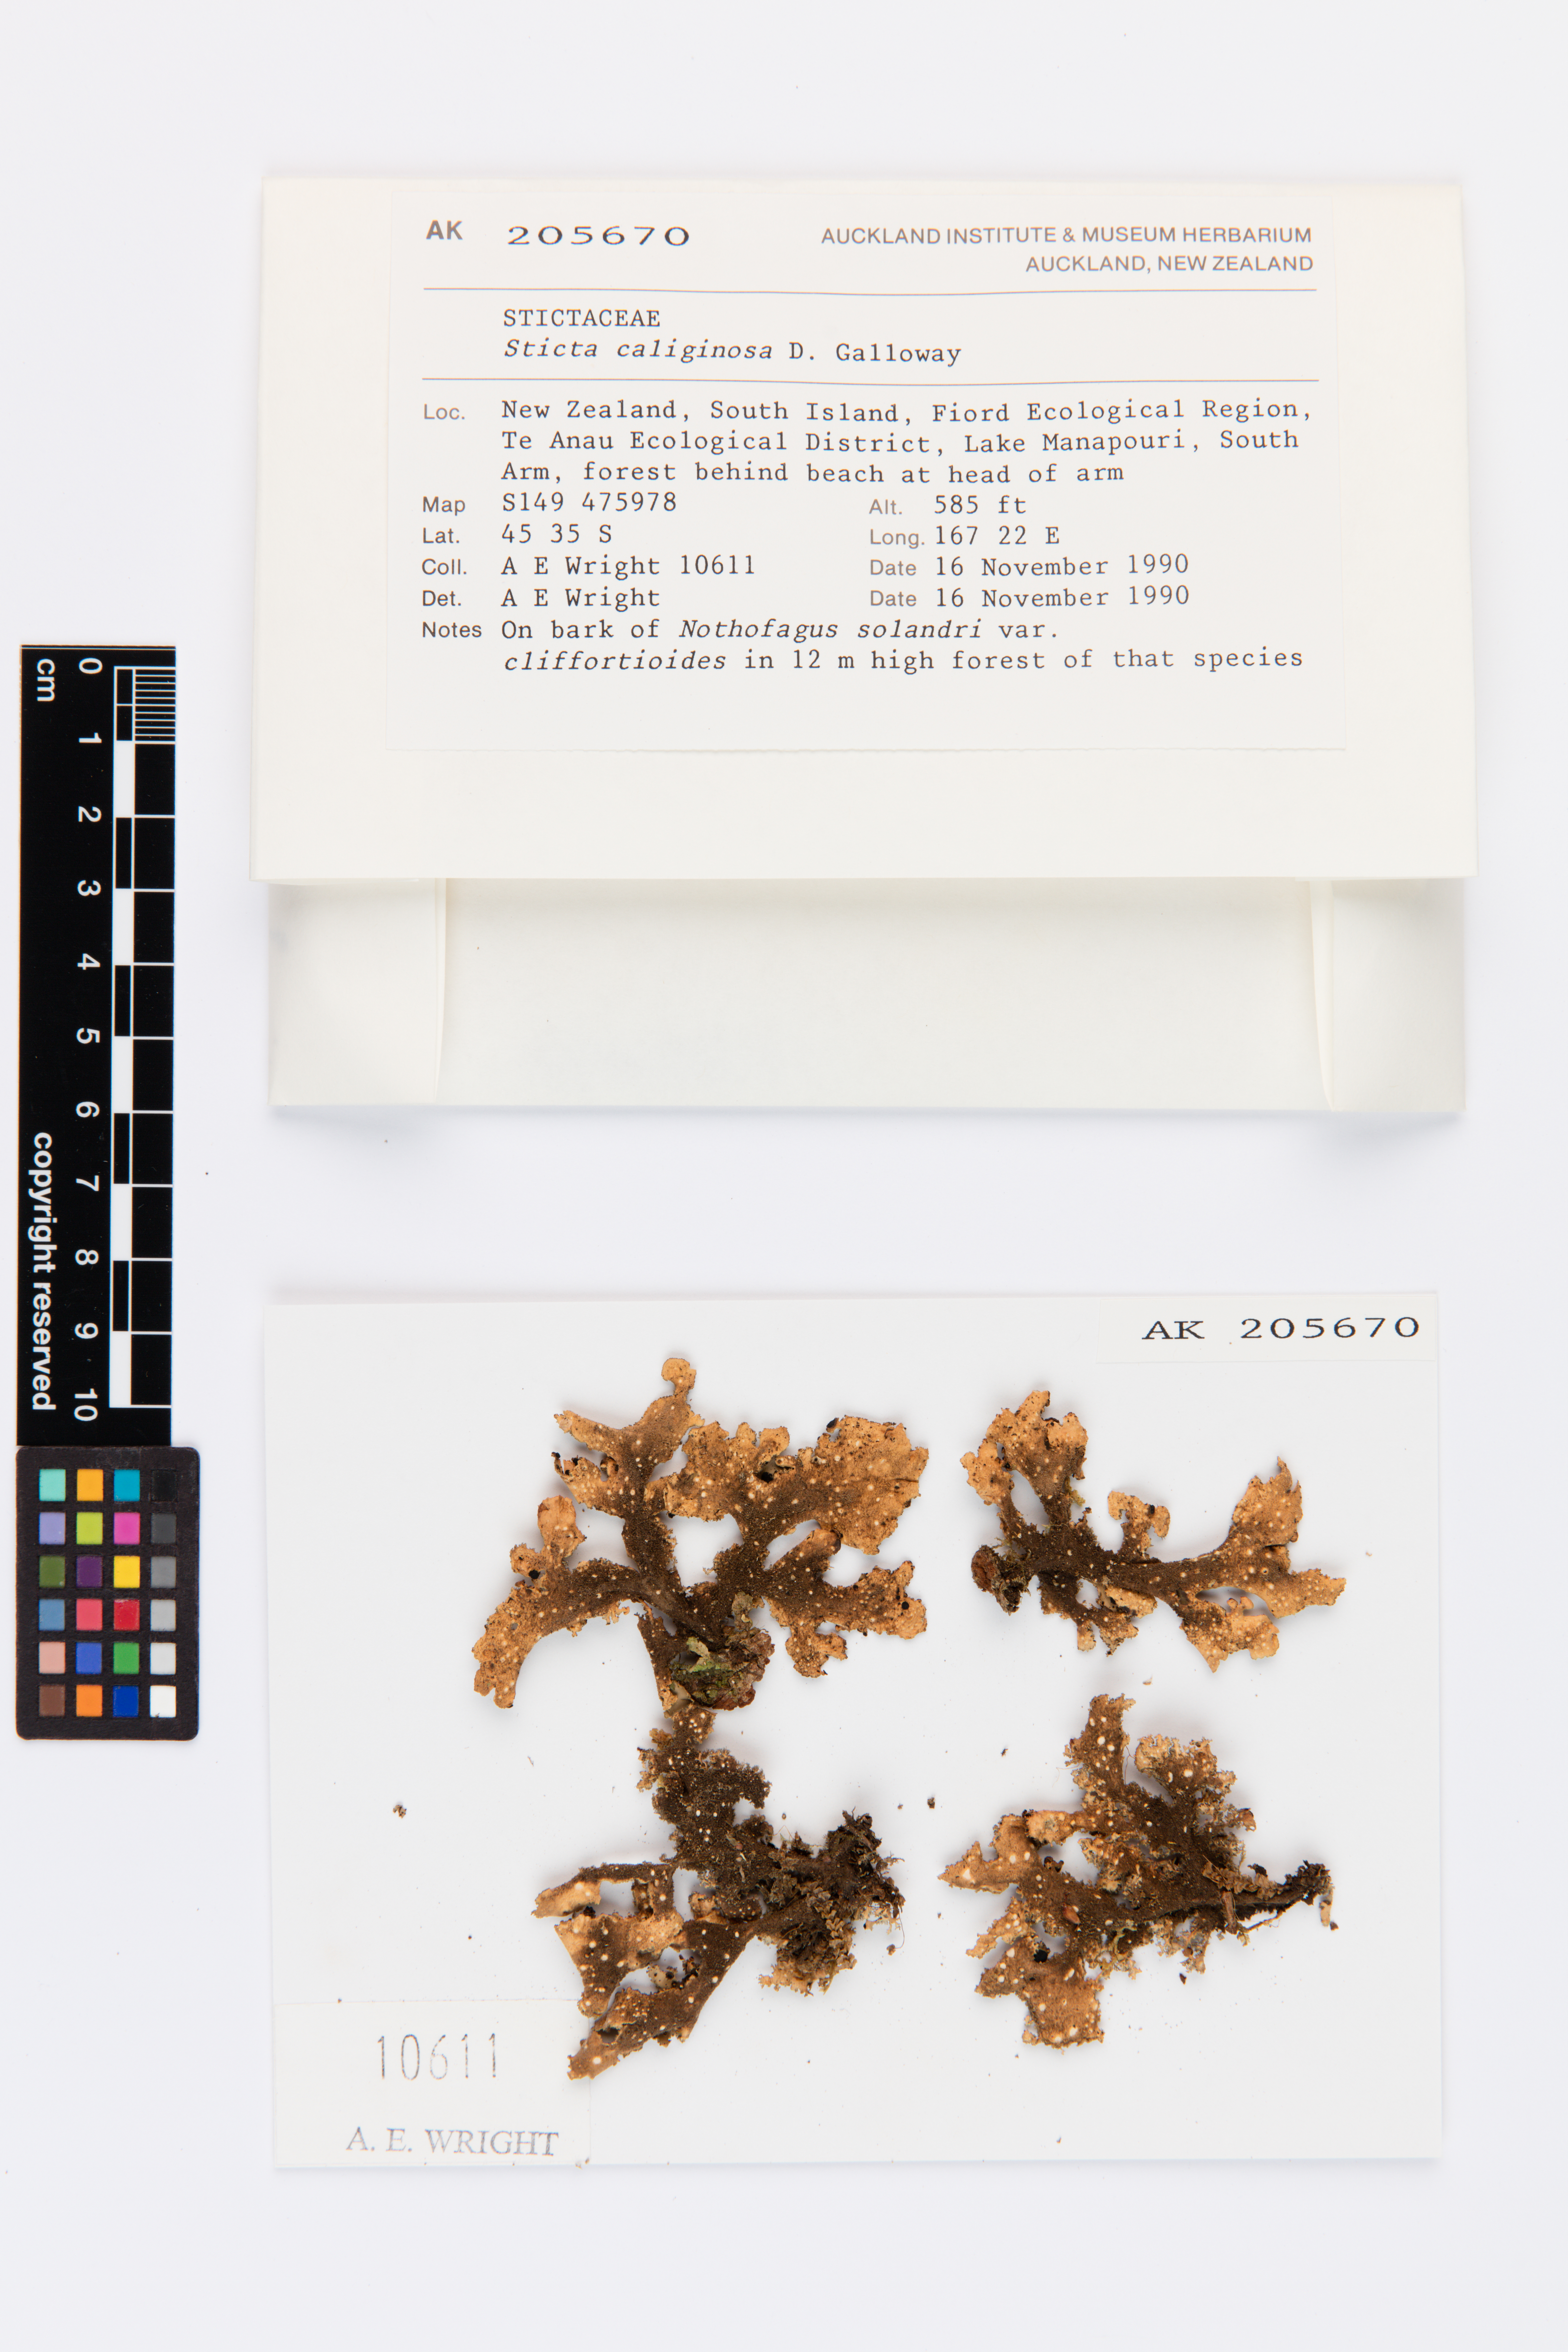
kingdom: Fungi
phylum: Ascomycota
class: Lecanoromycetes
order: Peltigerales
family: Lobariaceae
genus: Sticta
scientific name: Sticta caliginosa
